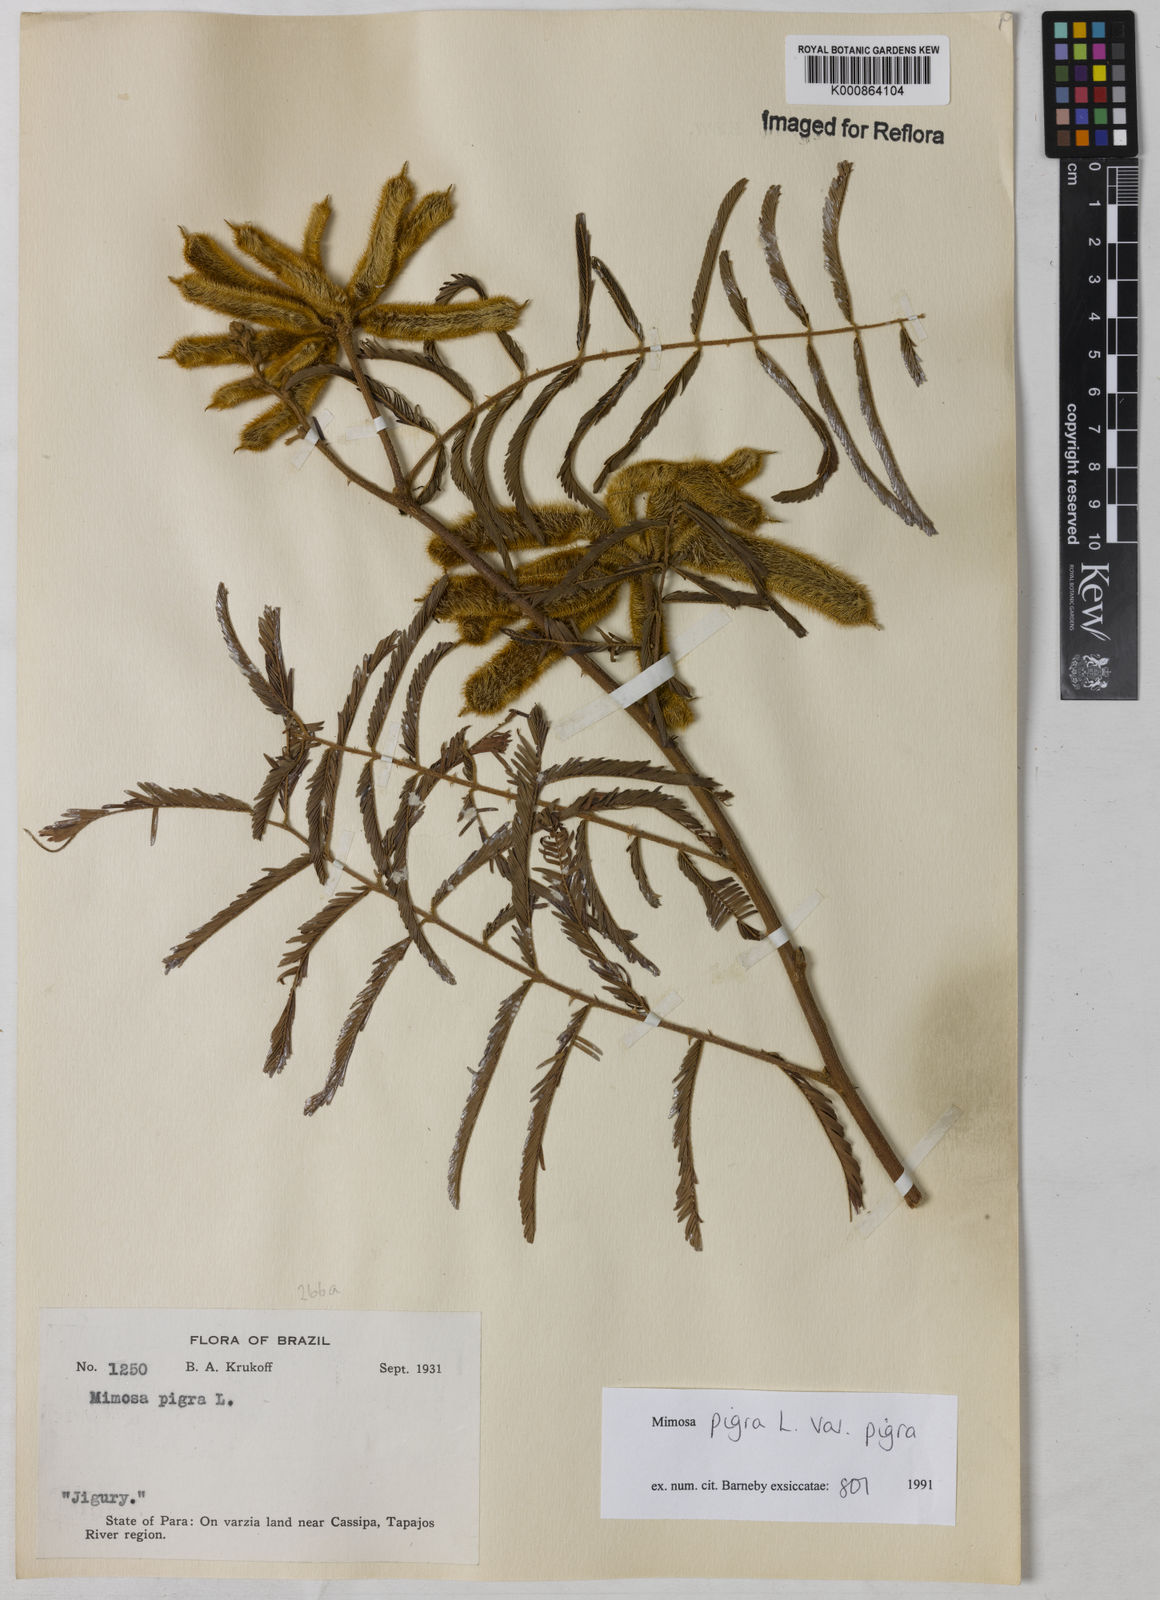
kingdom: Plantae
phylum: Tracheophyta
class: Magnoliopsida
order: Fabales
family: Fabaceae
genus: Mimosa
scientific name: Mimosa pigra
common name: Black mimosa
